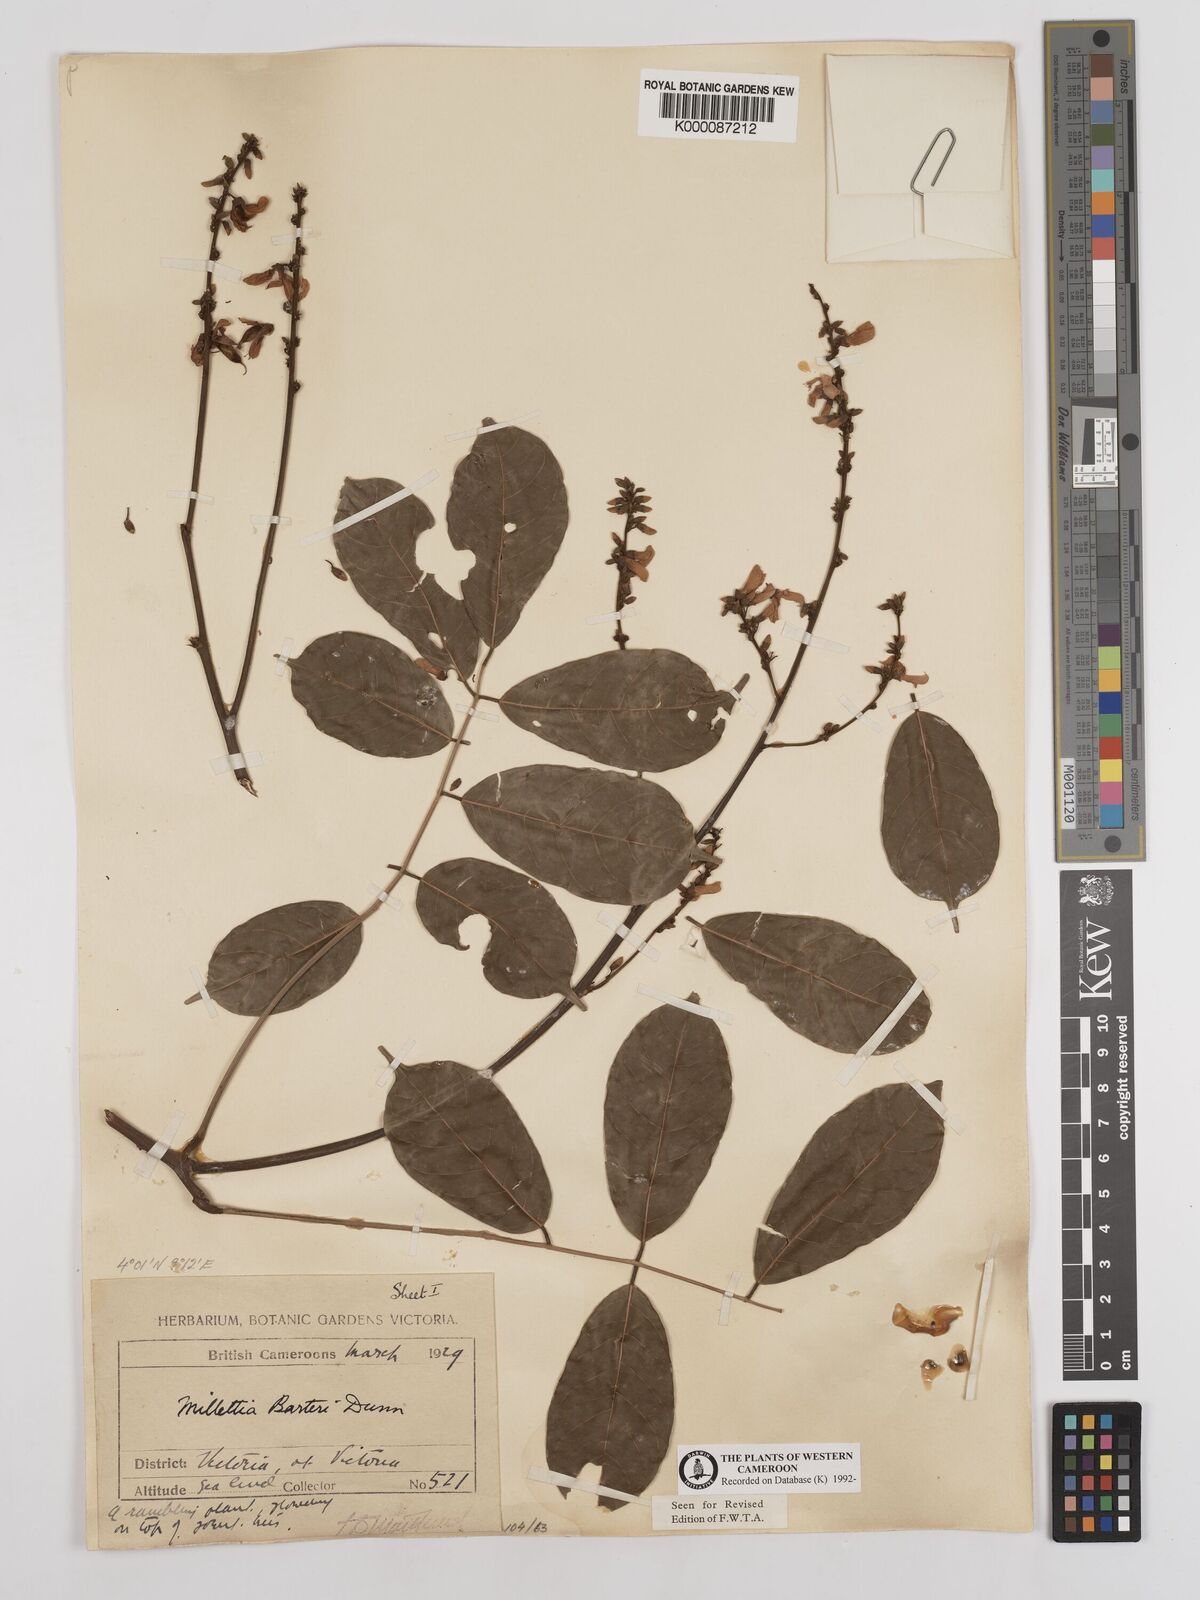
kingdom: Plantae
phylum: Tracheophyta
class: Magnoliopsida
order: Fabales
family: Fabaceae
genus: Millettia
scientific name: Millettia barteri
